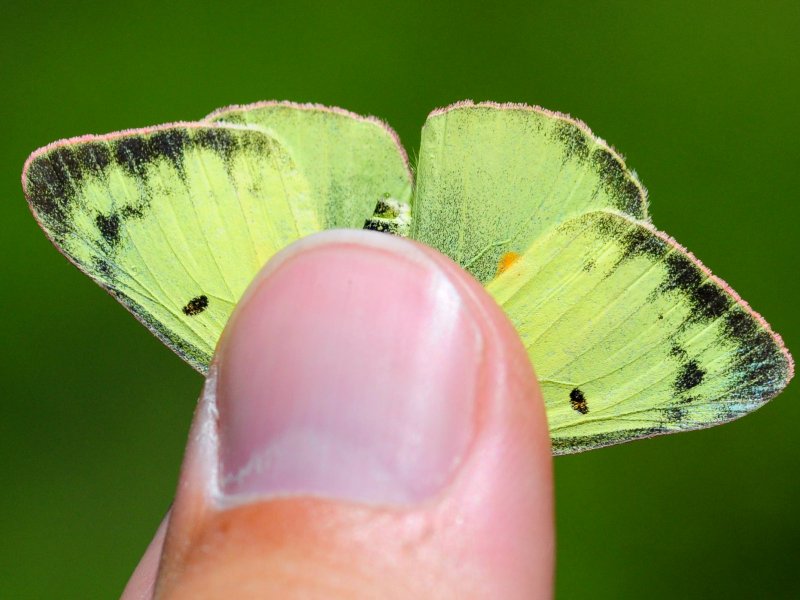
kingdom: Animalia
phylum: Arthropoda
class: Insecta
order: Lepidoptera
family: Pieridae
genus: Colias
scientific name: Colias philodice
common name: Clouded Sulphur
